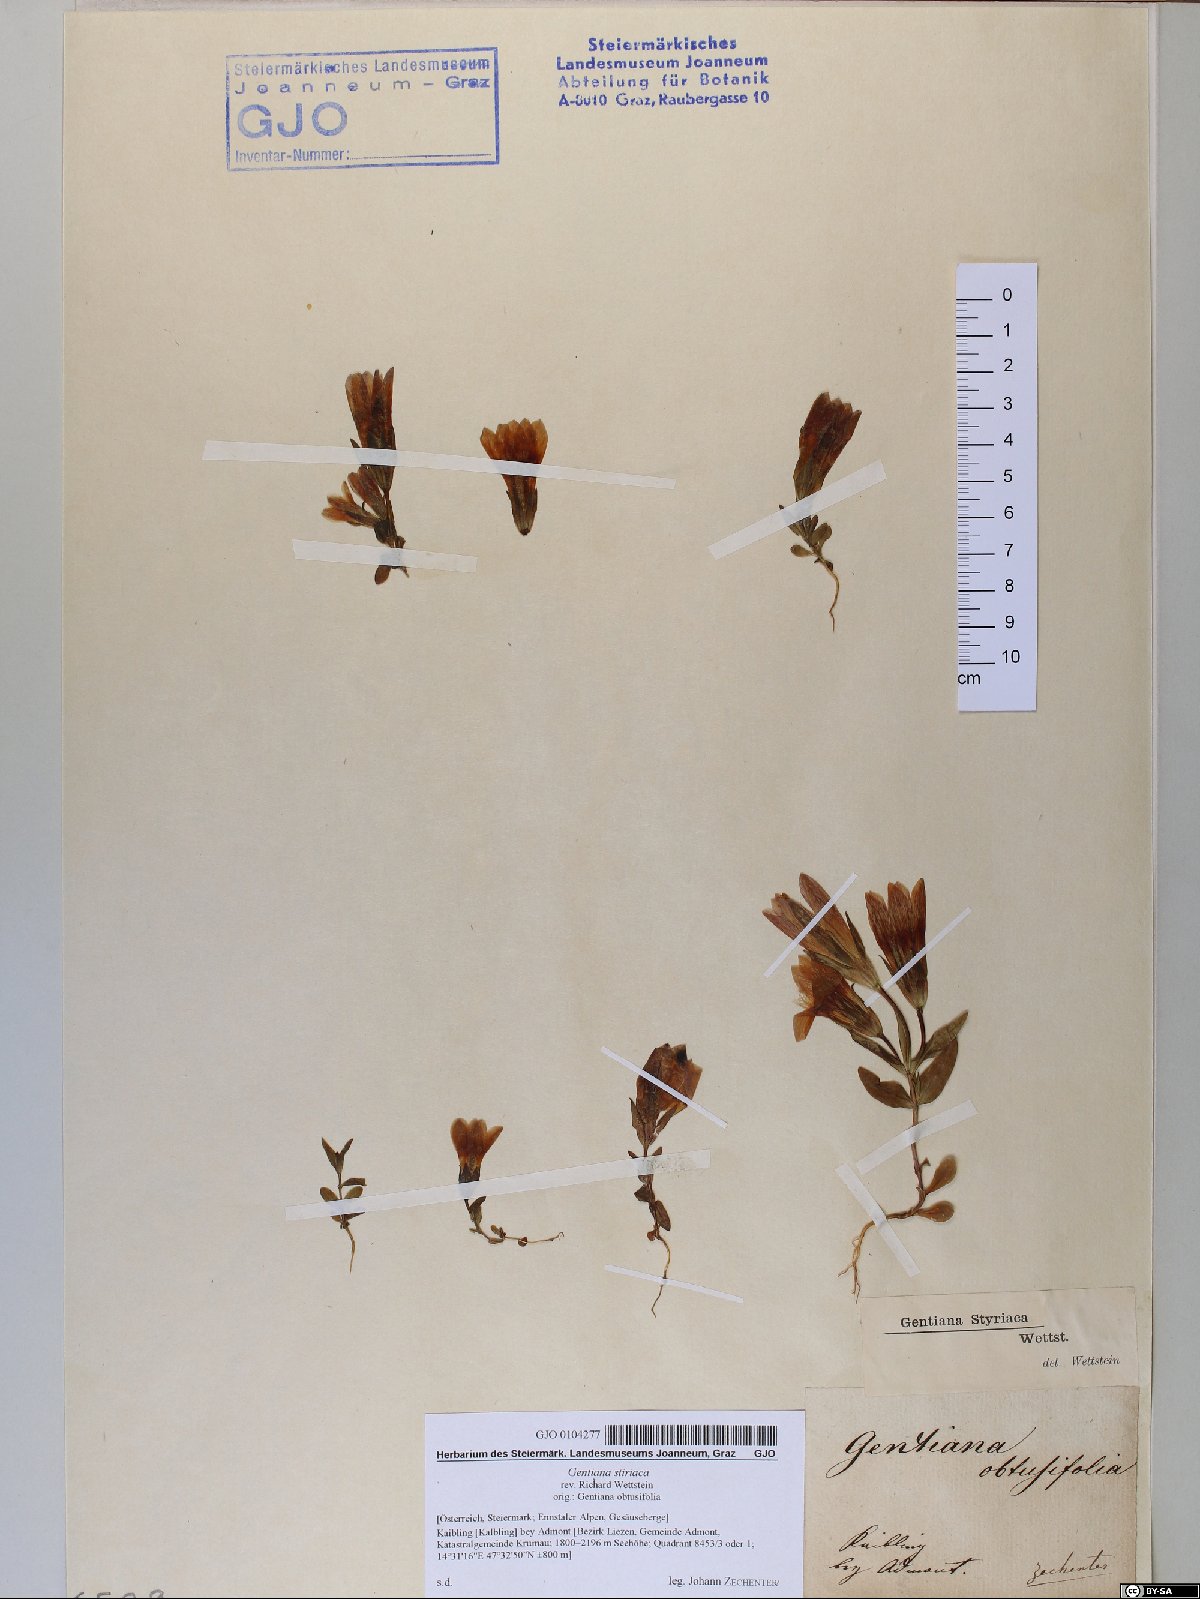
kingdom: Plantae
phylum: Tracheophyta
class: Magnoliopsida
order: Gentianales
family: Gentianaceae
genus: Gentianella
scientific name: Gentianella rhaetica
